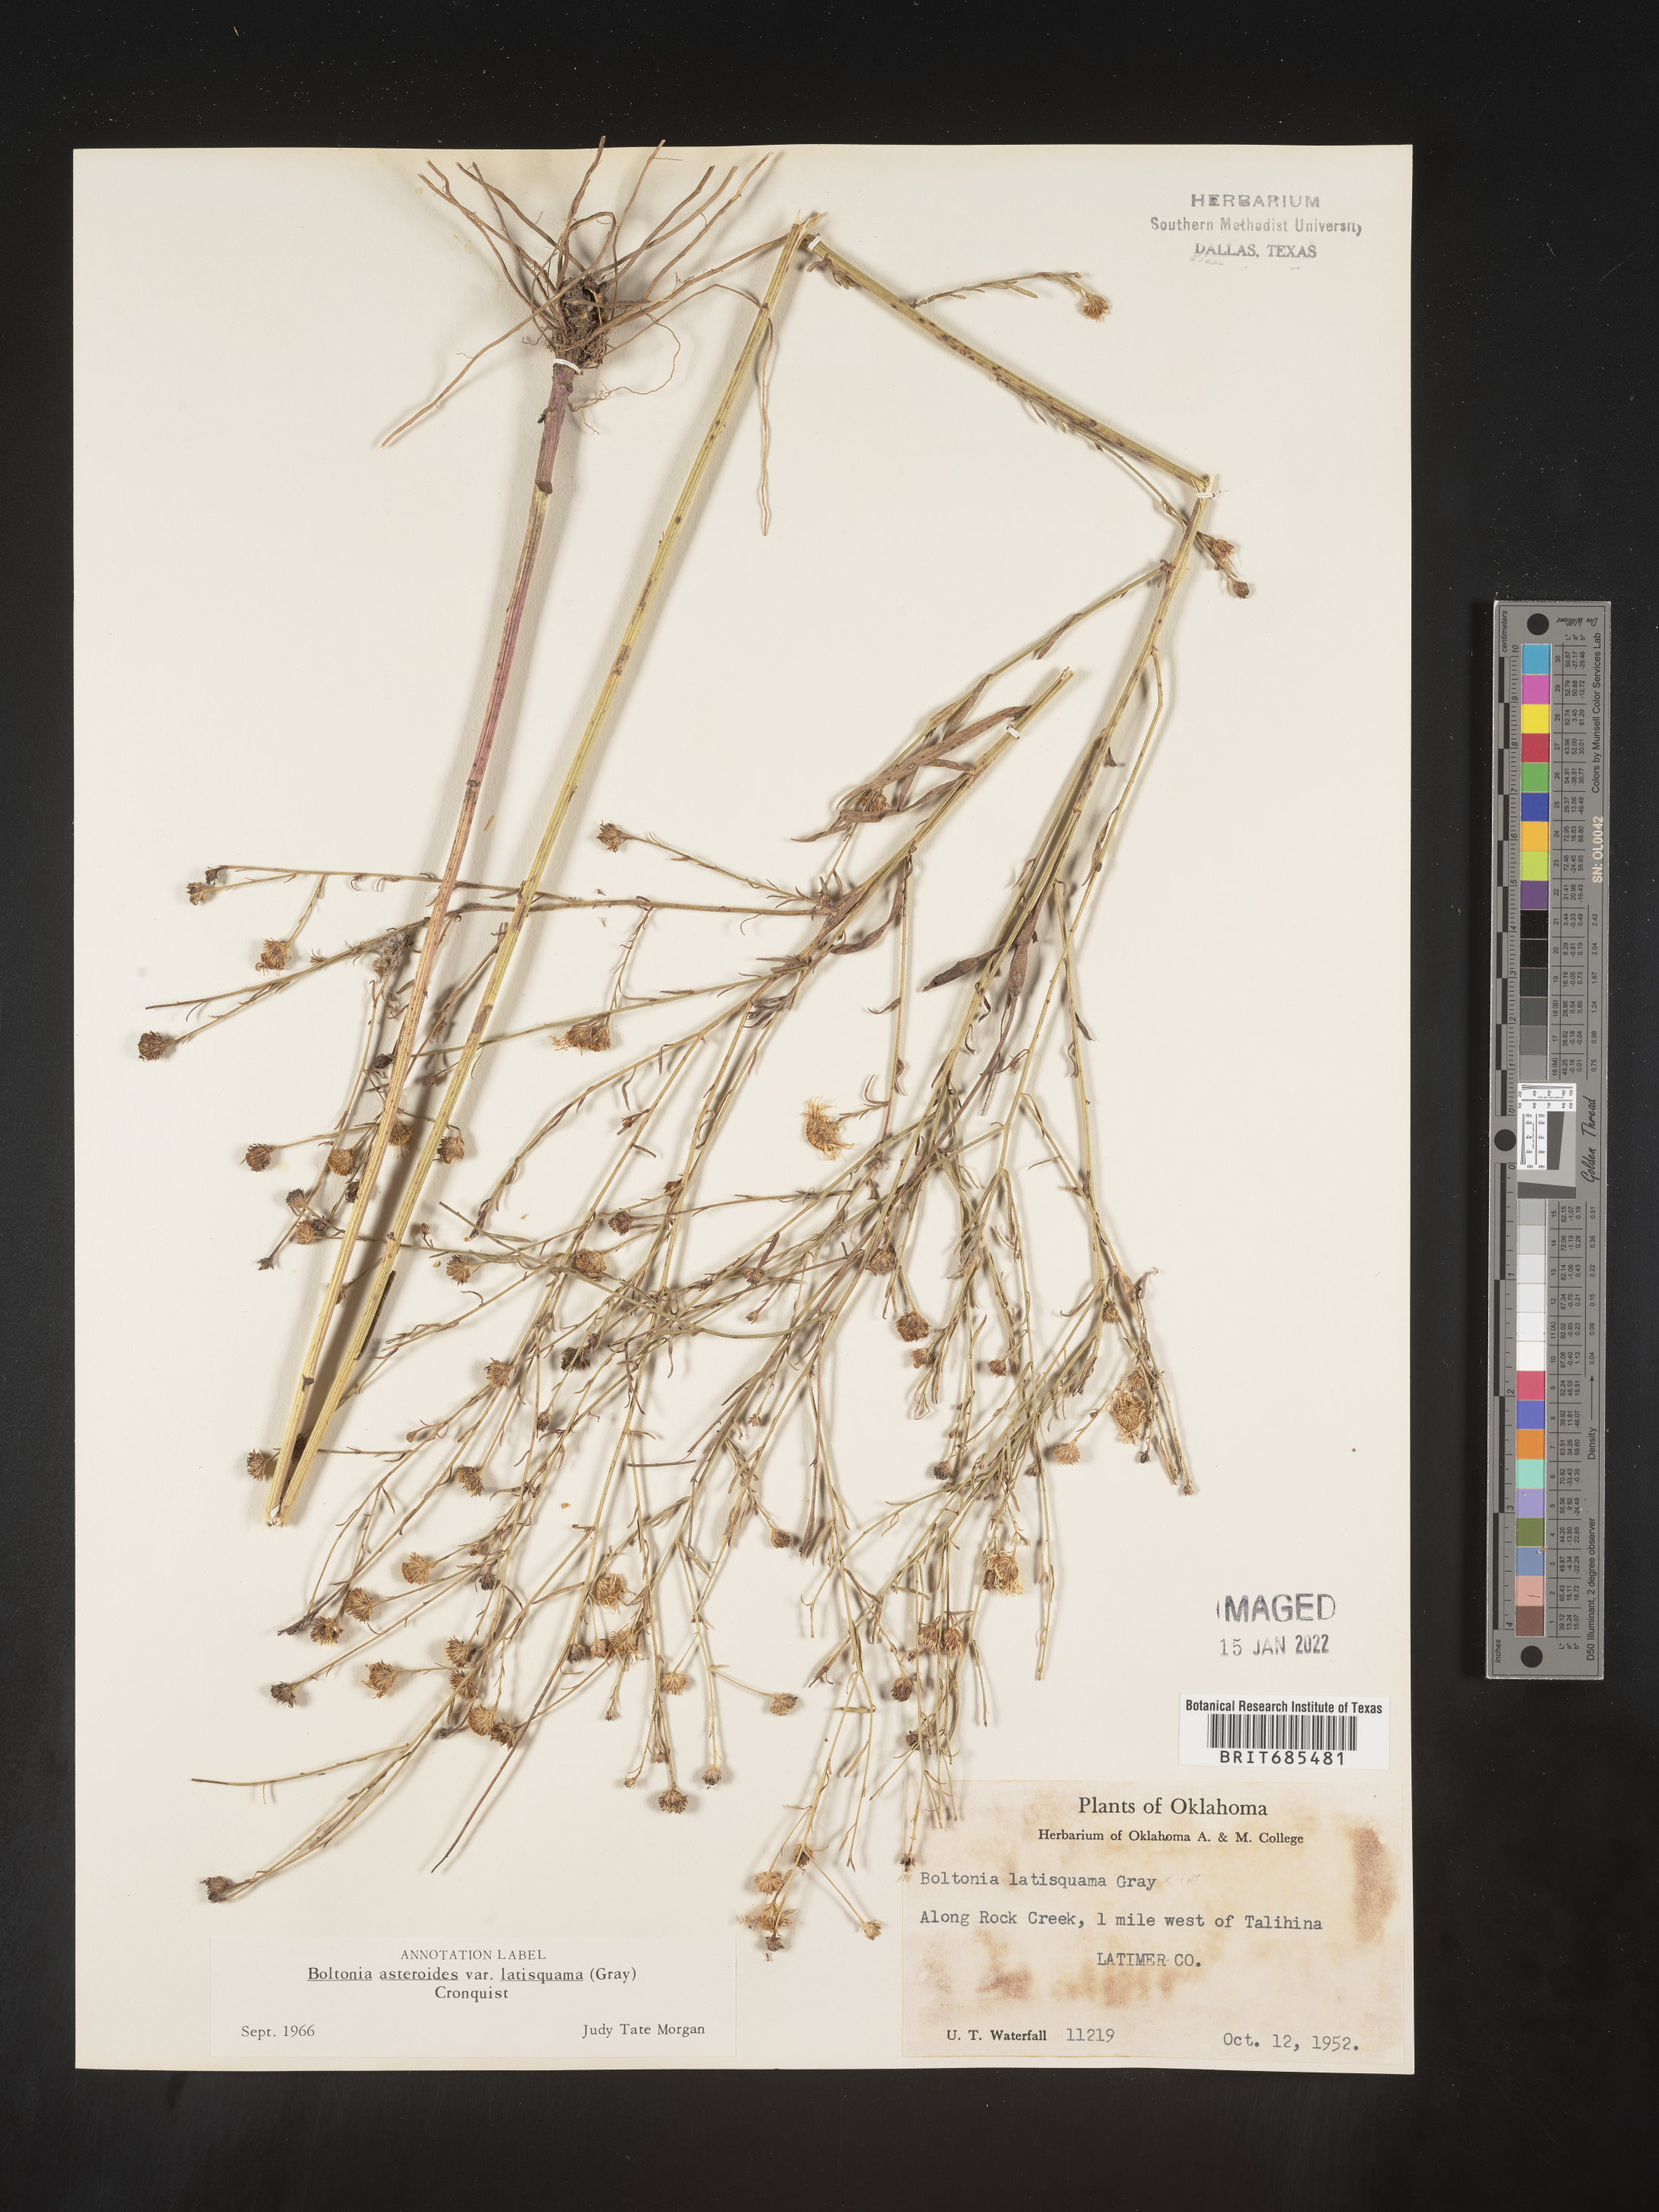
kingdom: Plantae
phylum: Tracheophyta
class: Magnoliopsida
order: Asterales
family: Asteraceae
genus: Boltonia
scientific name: Boltonia asteroides
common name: False chamomile
